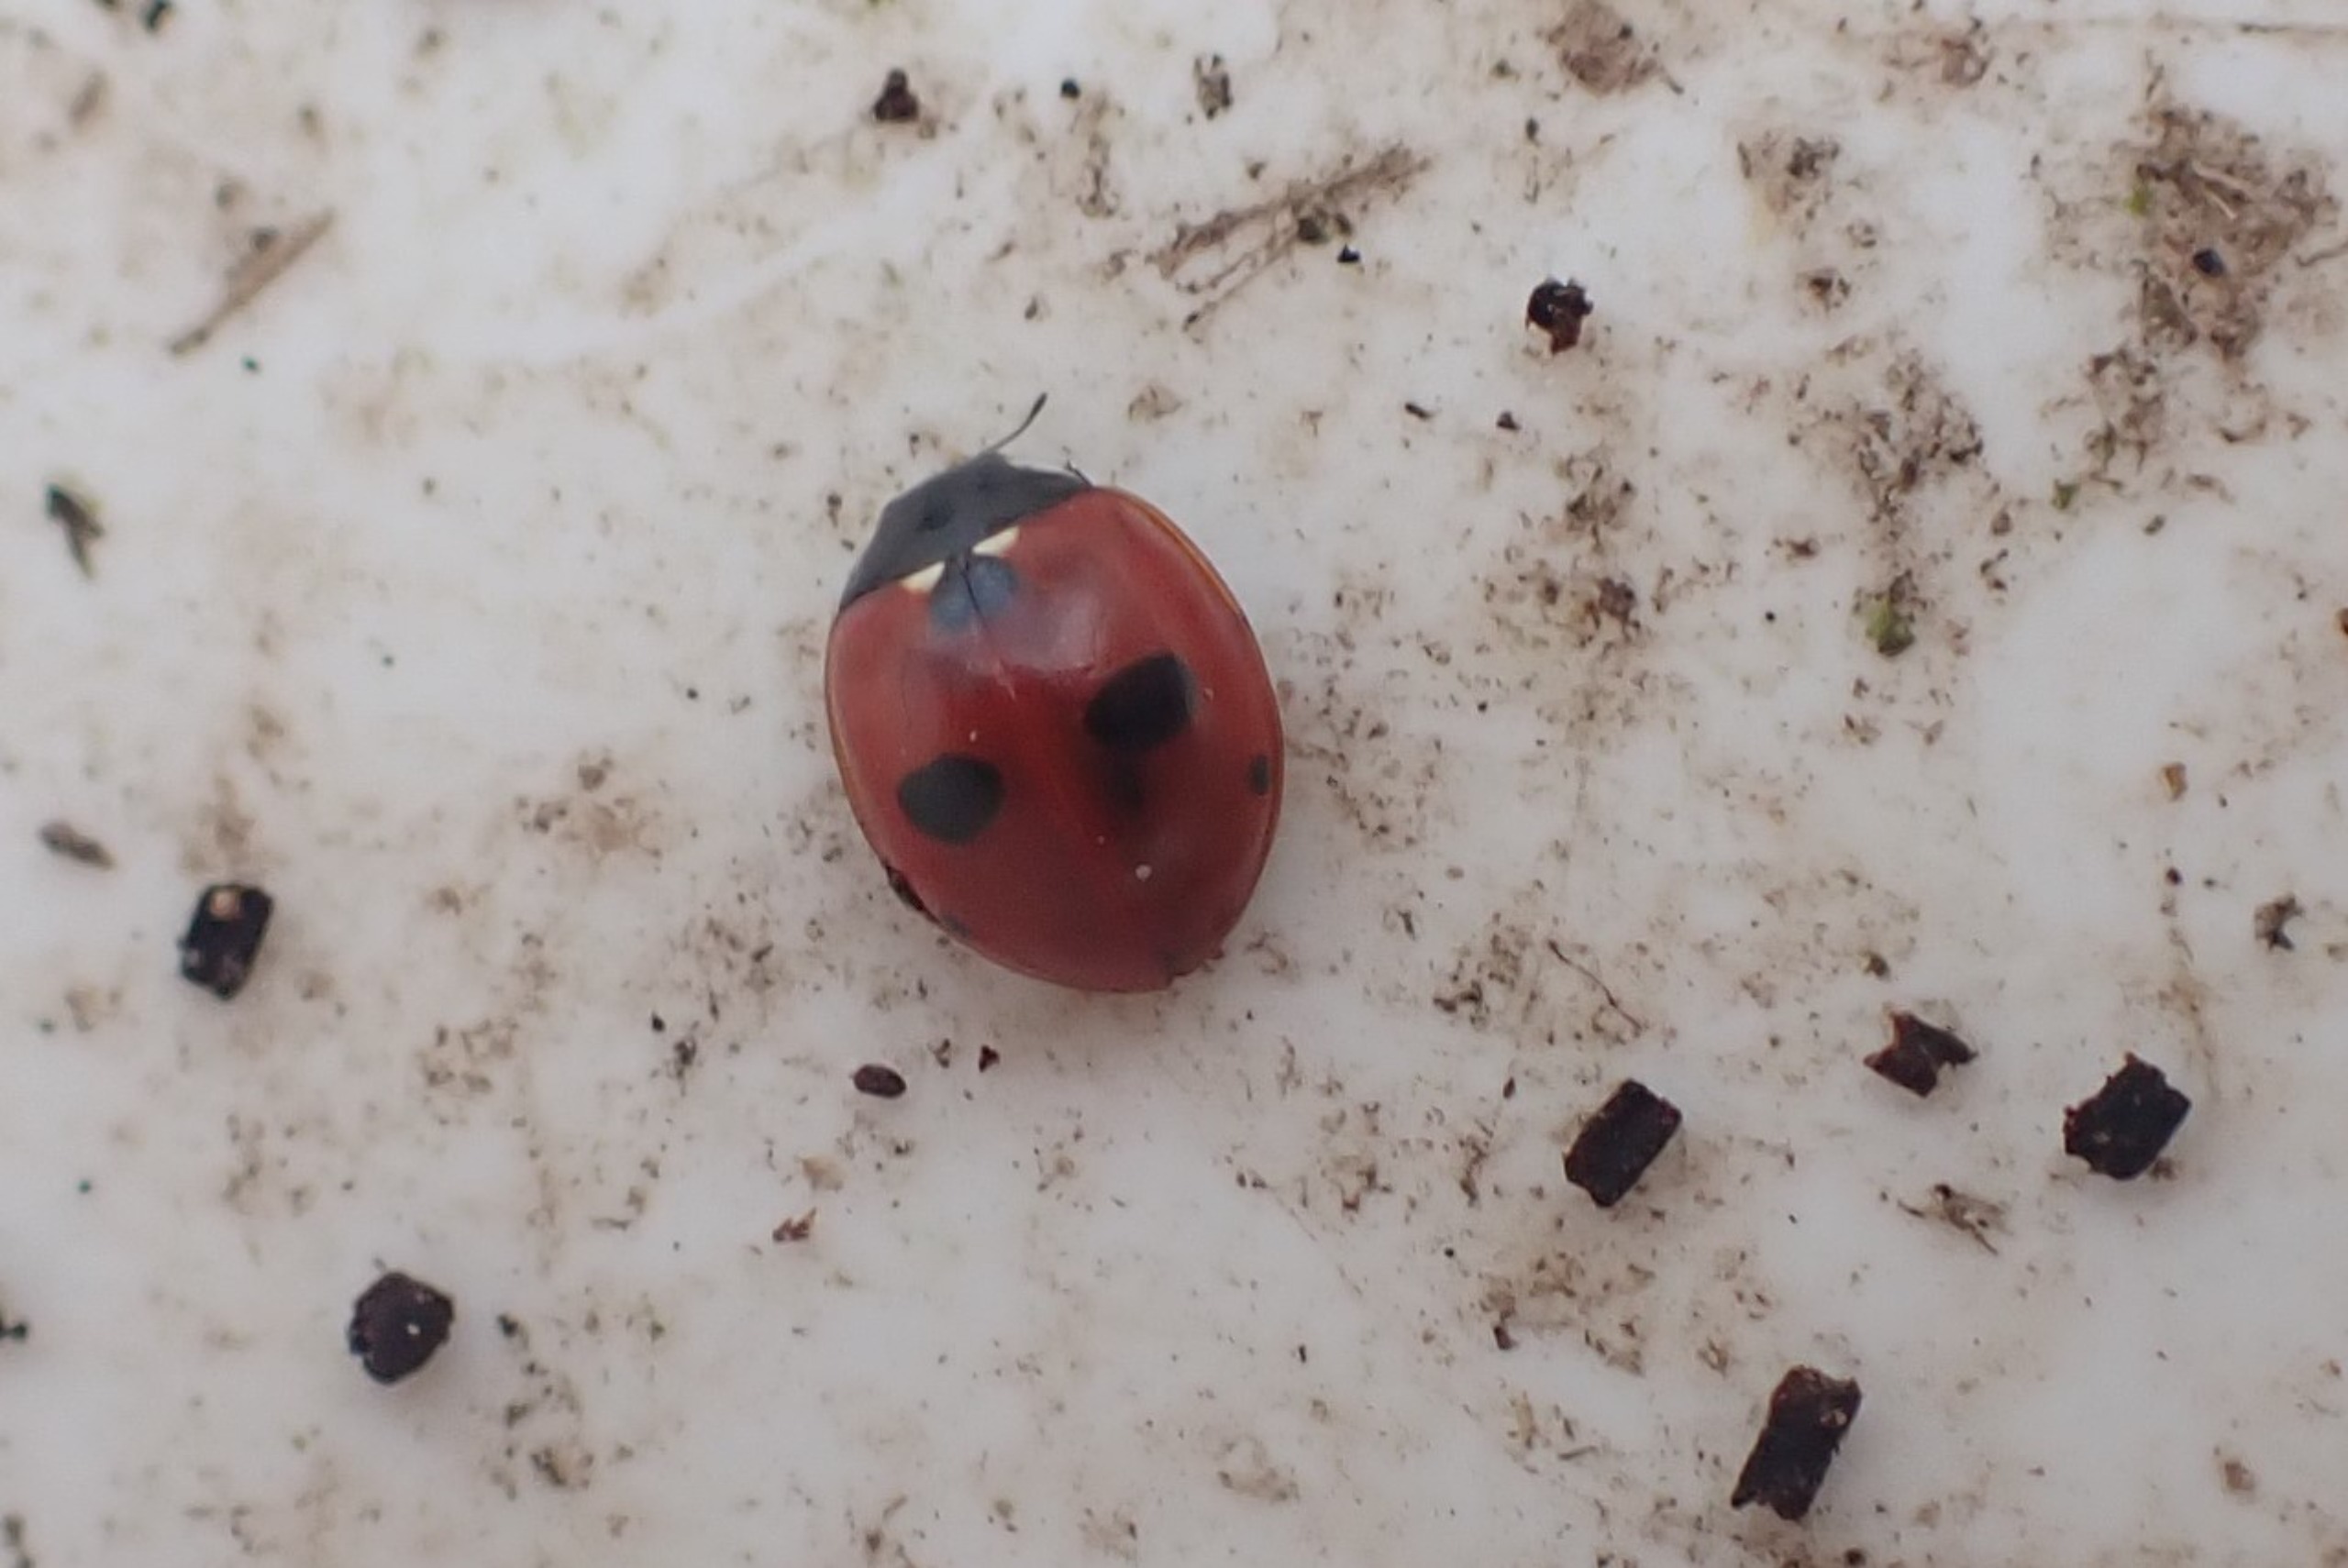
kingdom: Animalia
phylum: Arthropoda
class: Insecta
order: Coleoptera
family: Coccinellidae
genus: Coccinella
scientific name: Coccinella quinquepunctata
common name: Femplettet mariehøne
